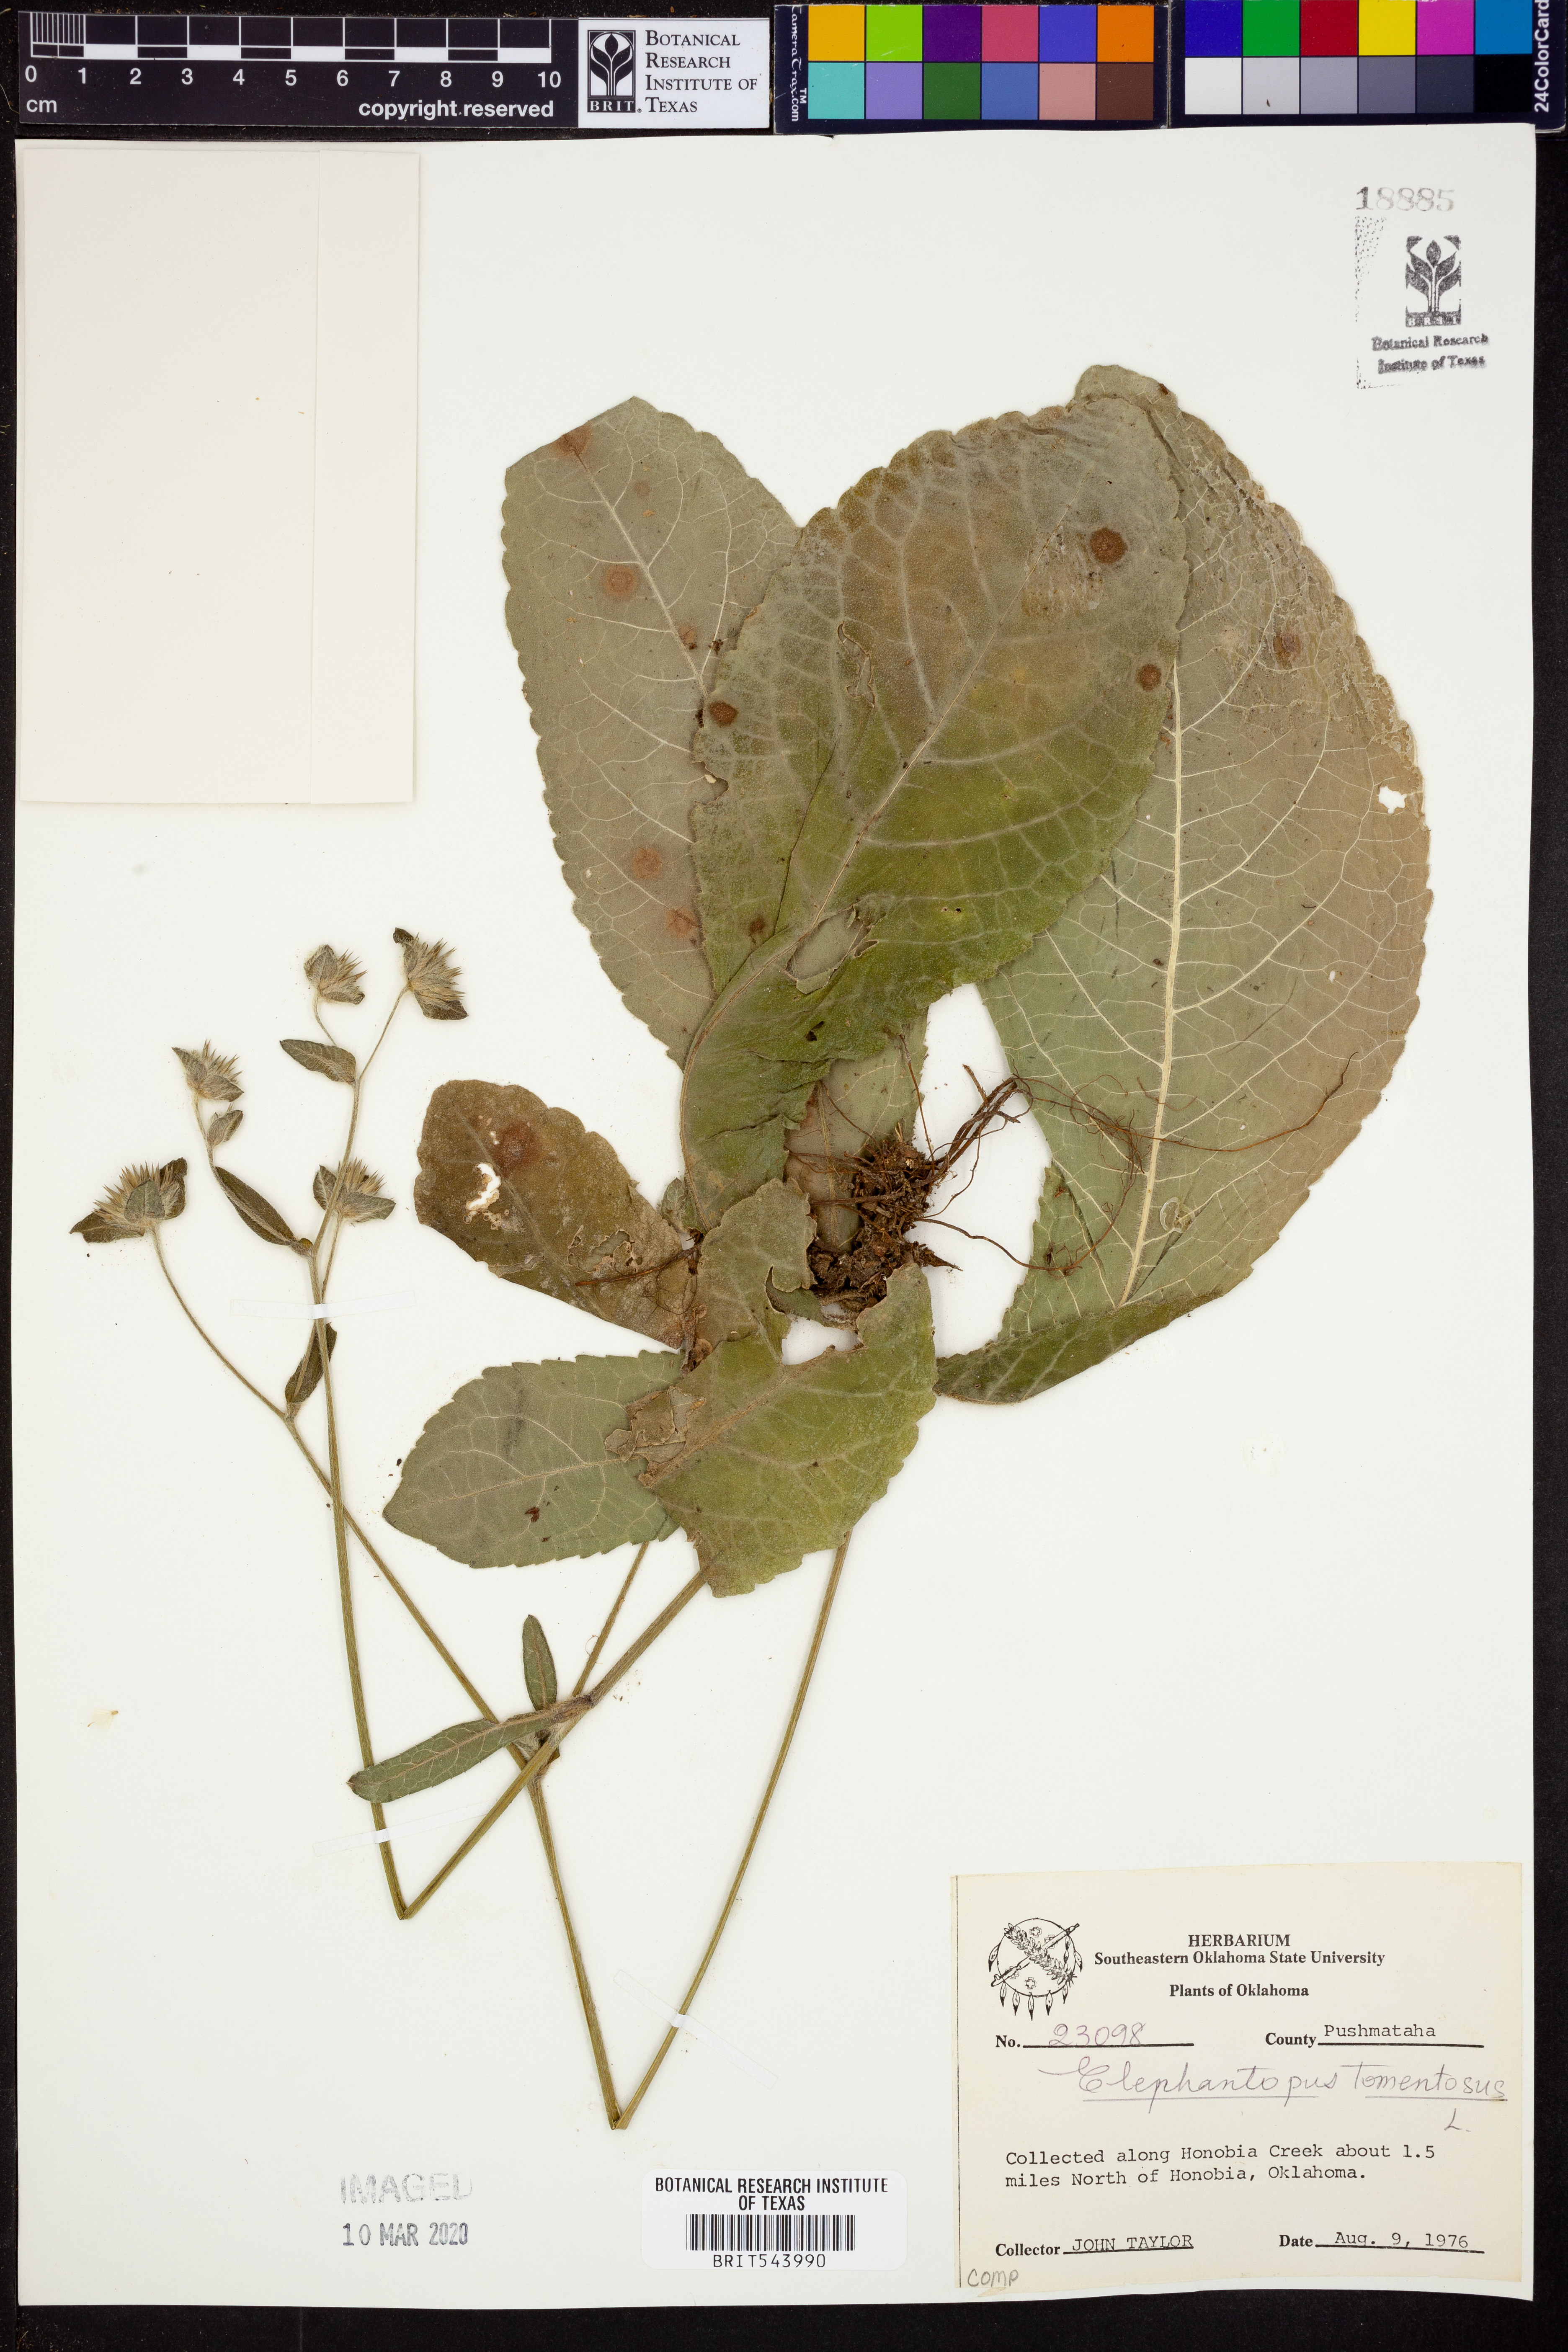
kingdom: Plantae
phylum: Tracheophyta
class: Magnoliopsida
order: Asterales
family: Asteraceae
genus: Elephantopus
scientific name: Elephantopus tomentosus
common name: Tobacco-weed
